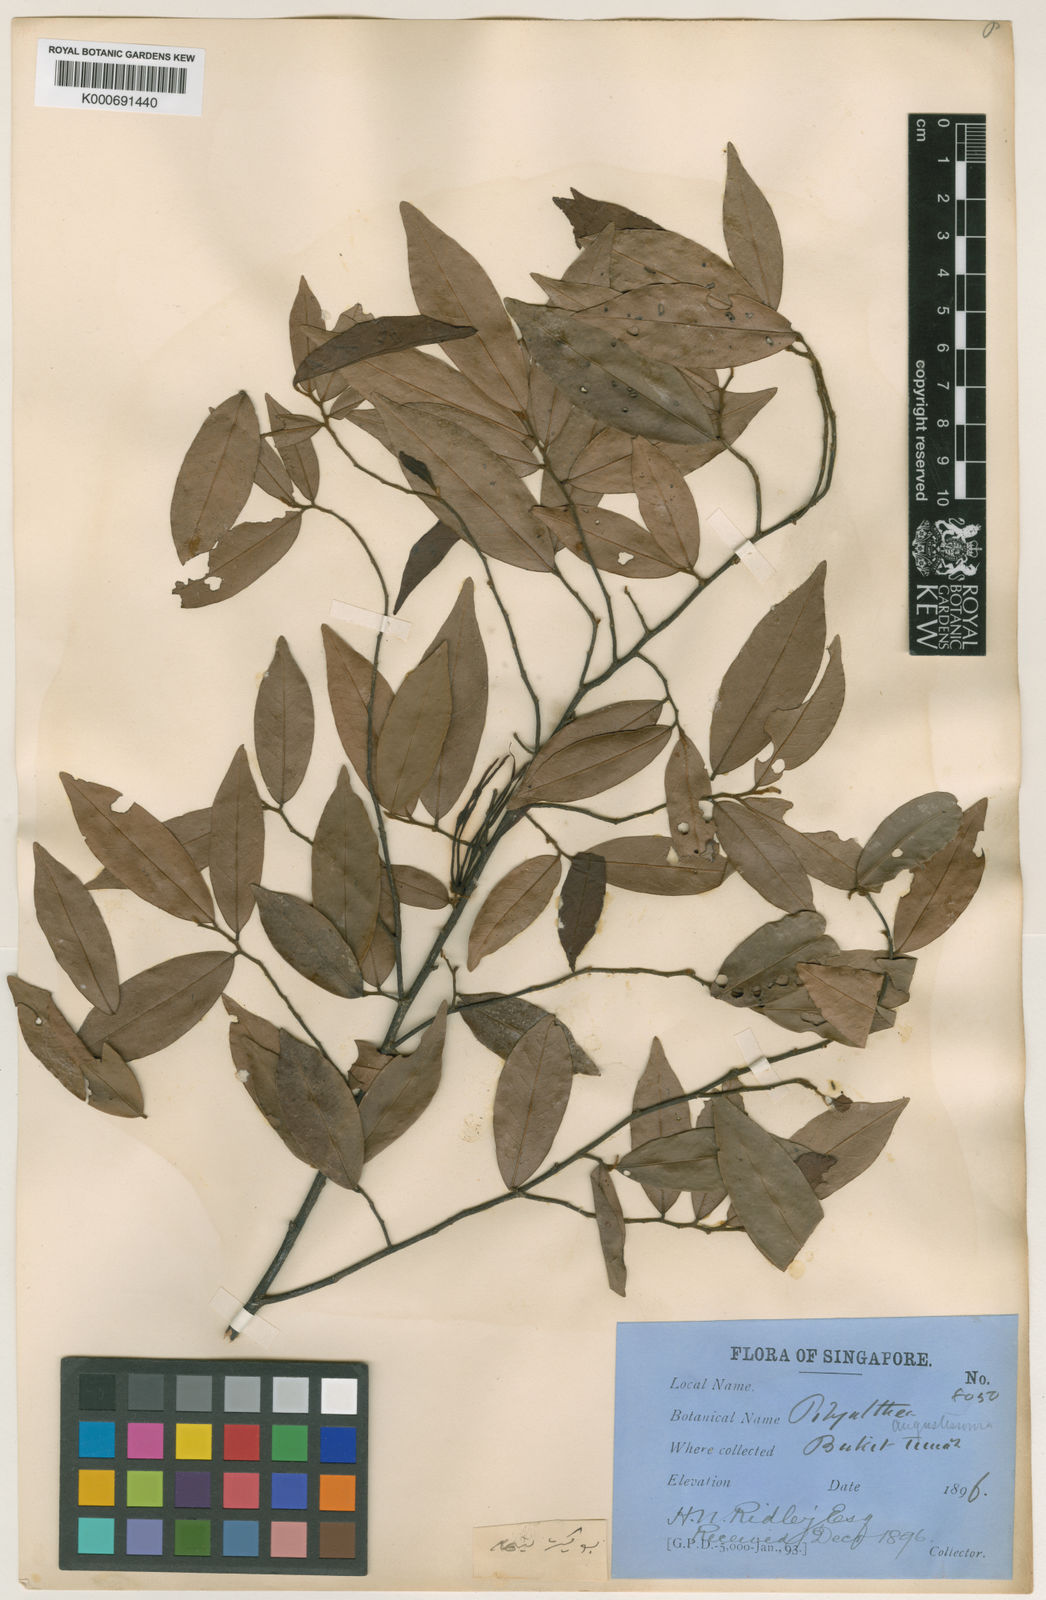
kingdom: Plantae
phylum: Tracheophyta
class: Magnoliopsida
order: Magnoliales
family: Annonaceae
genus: Polyalthia
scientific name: Polyalthia angustissima
